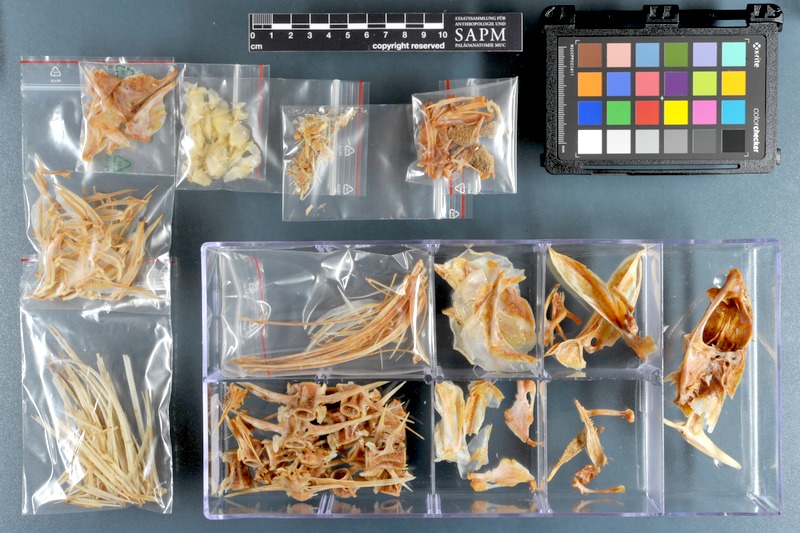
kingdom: Animalia
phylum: Chordata
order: Perciformes
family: Carangidae
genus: Alepes
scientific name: Alepes melanoptera
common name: Blackfin scad
